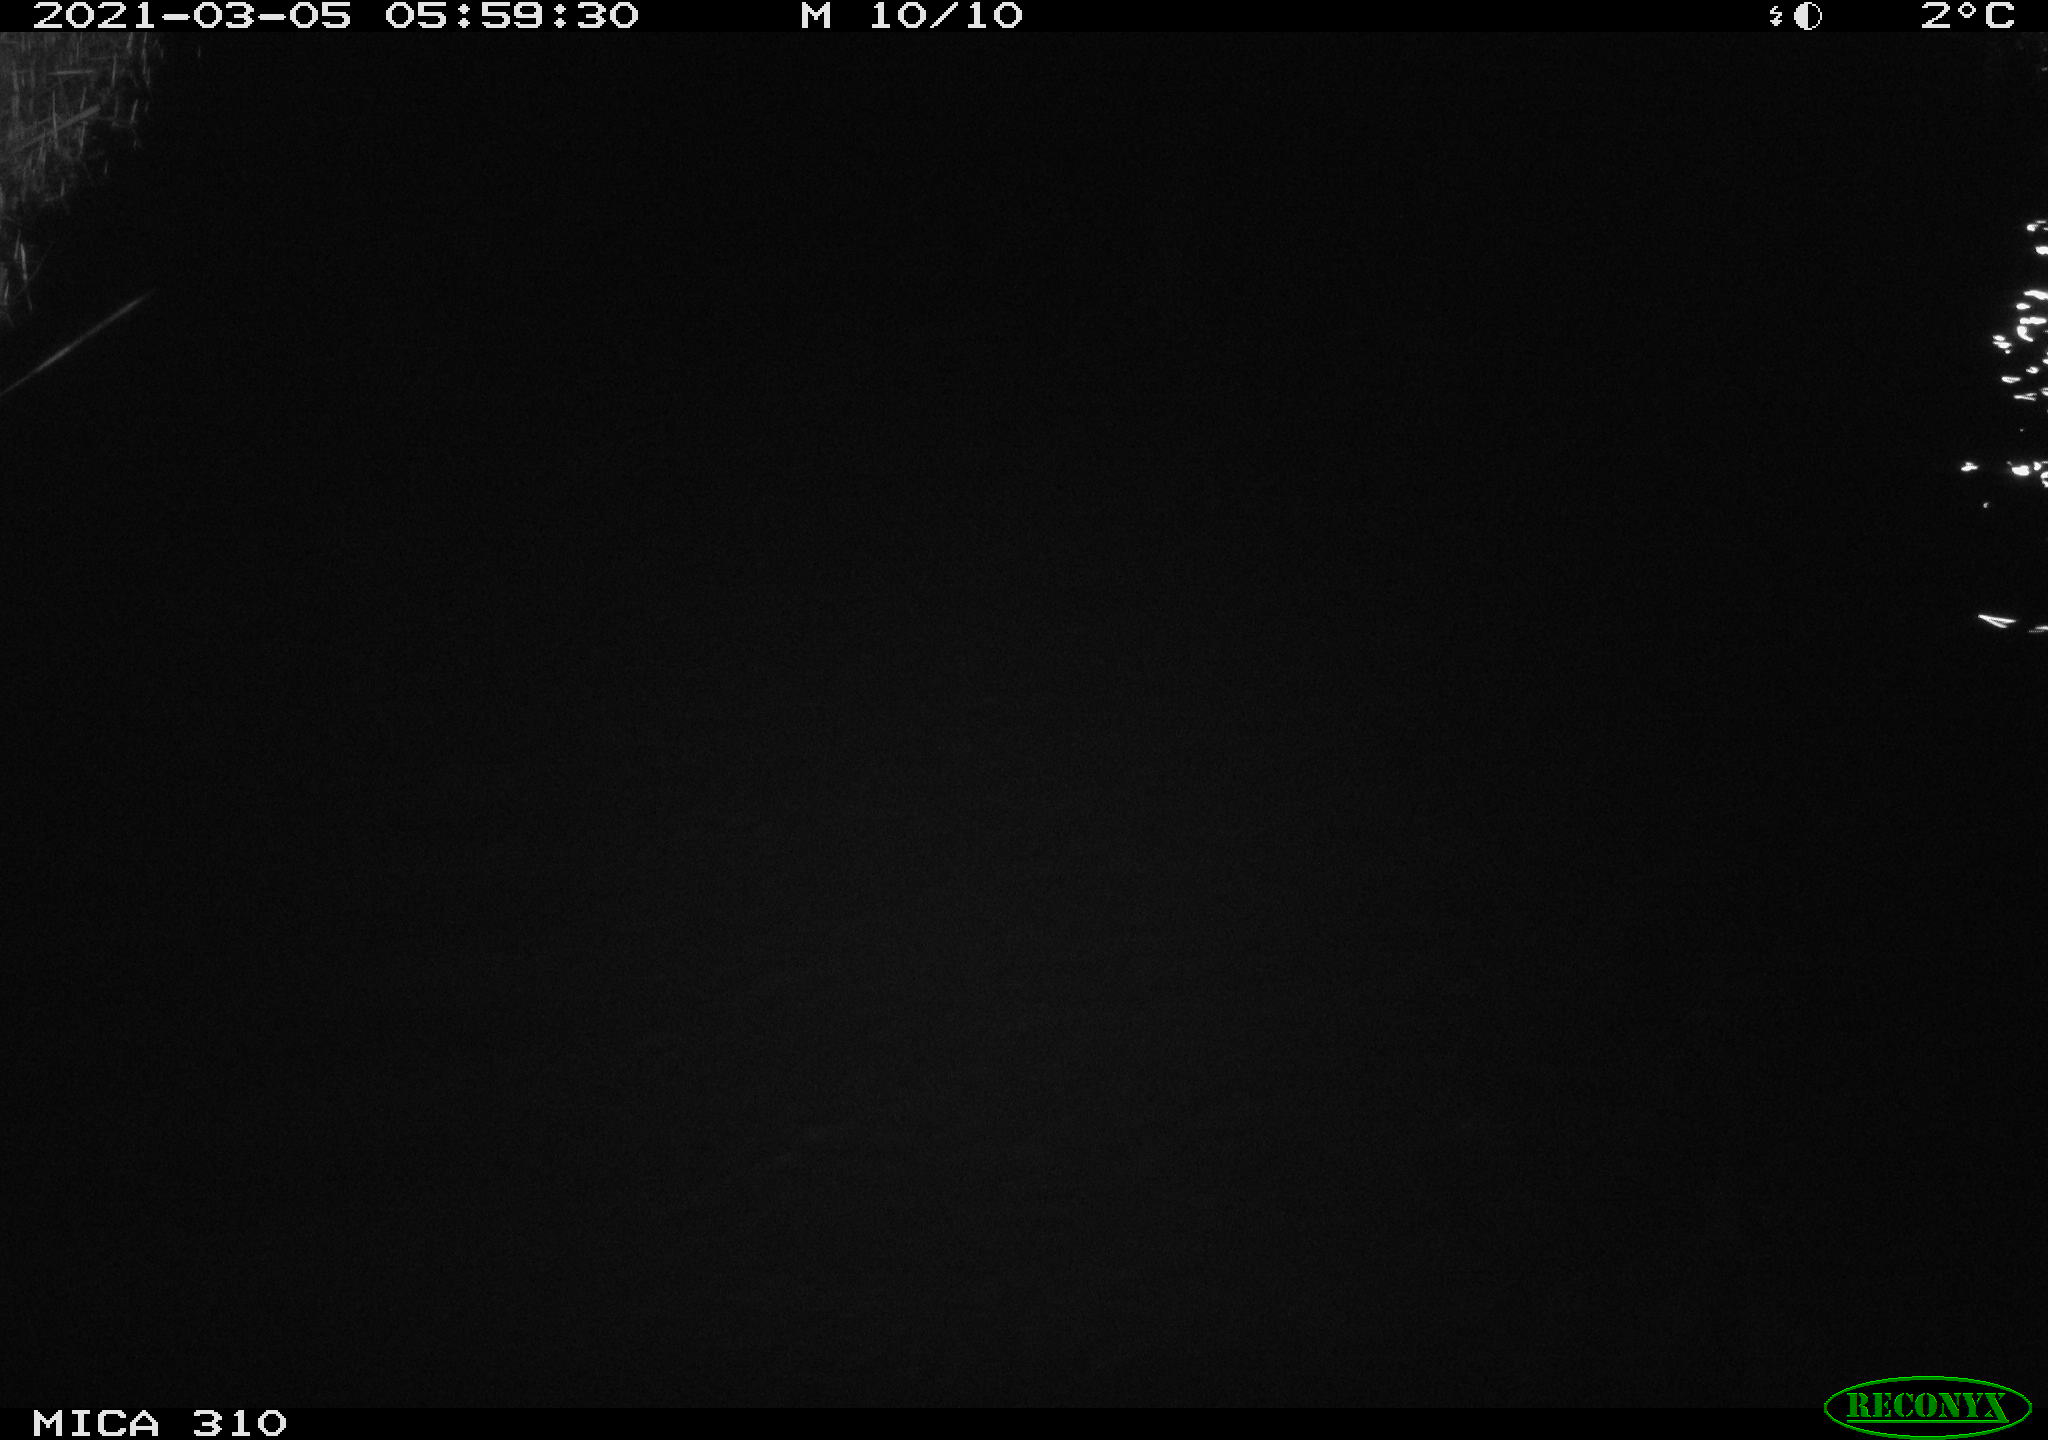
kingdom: Animalia
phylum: Chordata
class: Aves
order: Anseriformes
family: Anatidae
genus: Anas
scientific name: Anas platyrhynchos
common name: Mallard
